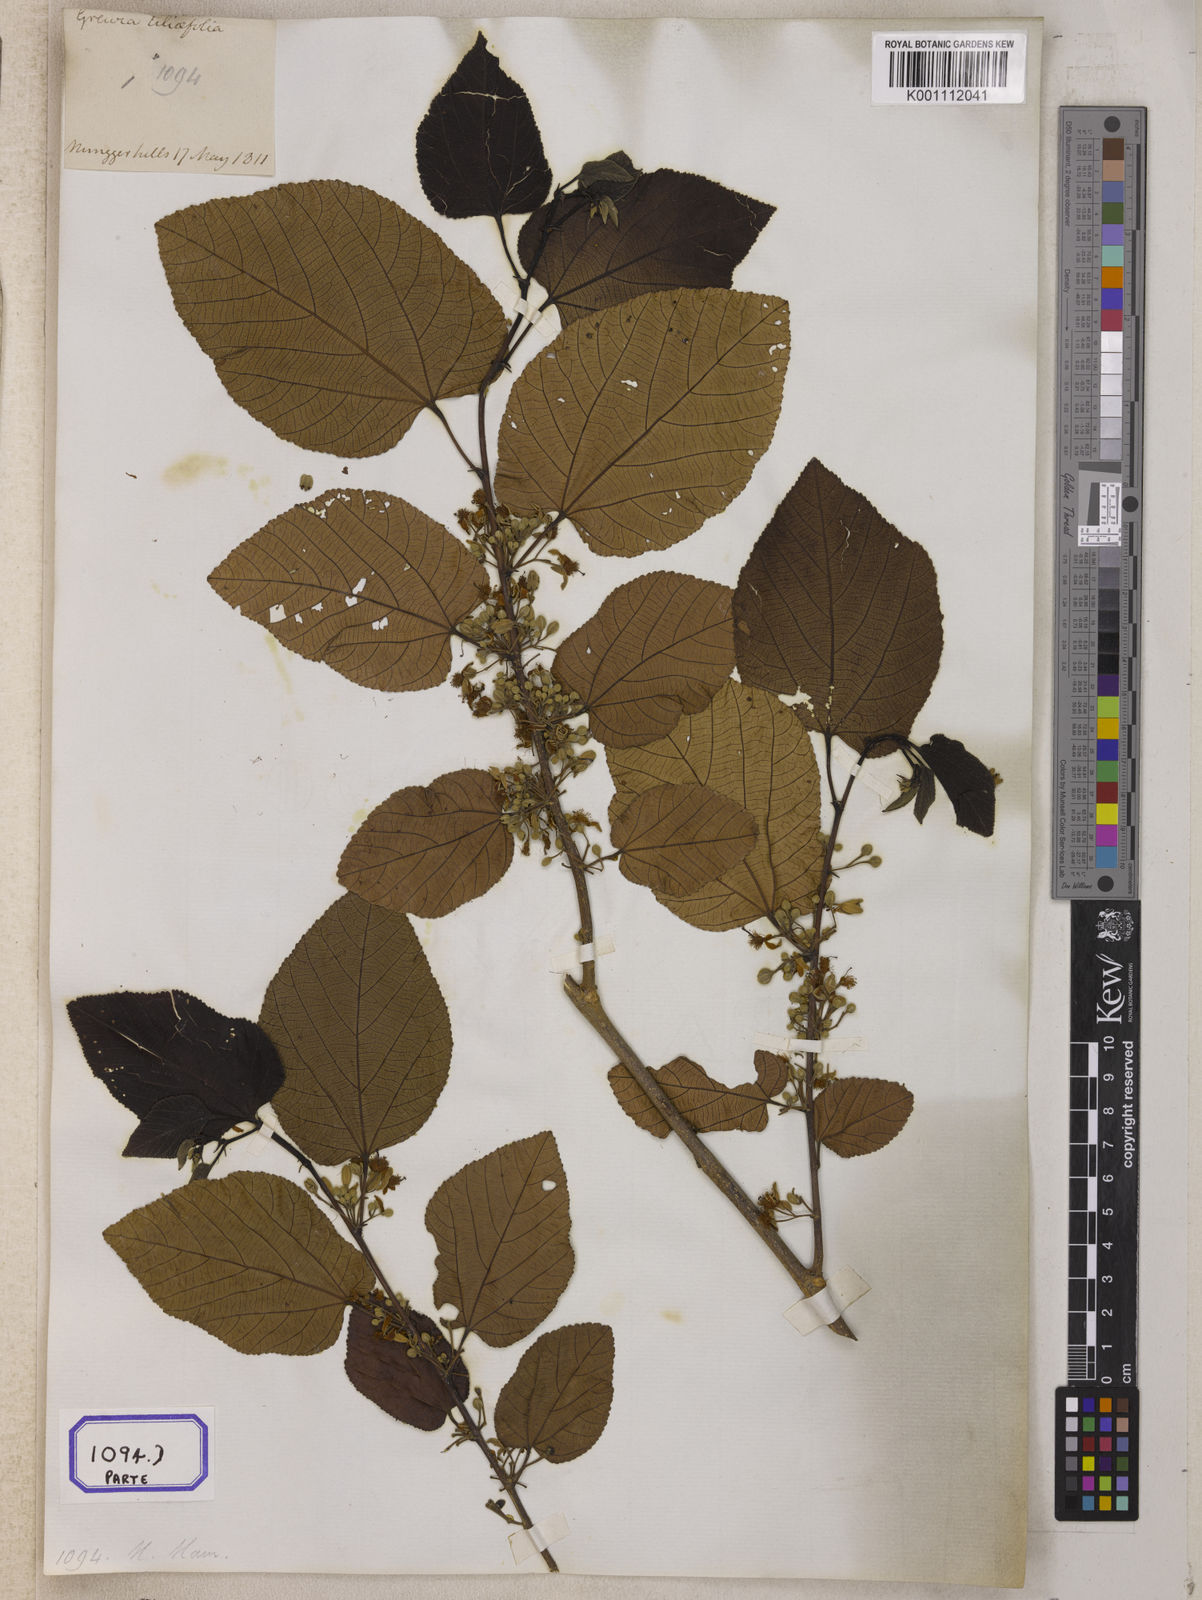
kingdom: Plantae
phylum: Tracheophyta
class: Magnoliopsida
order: Malvales
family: Malvaceae
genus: Grewia
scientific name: Grewia tiliifolia
